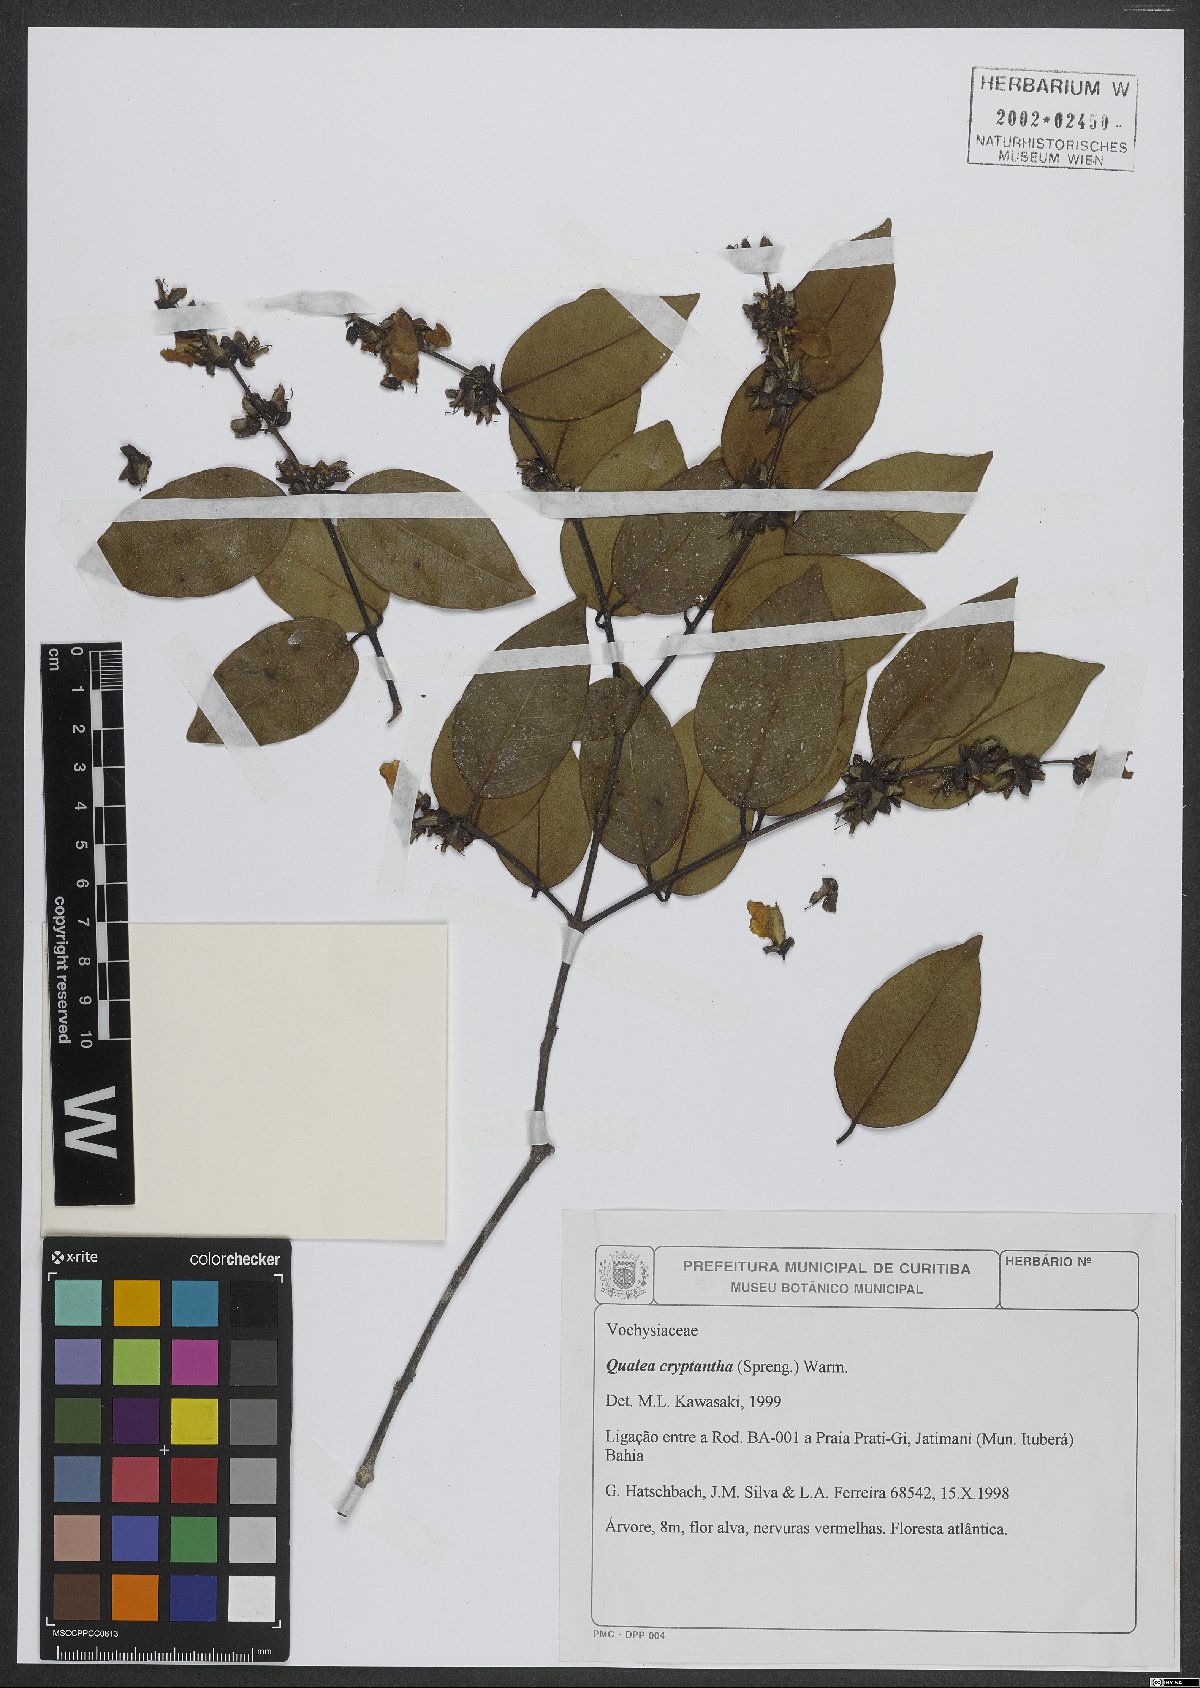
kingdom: Plantae
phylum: Tracheophyta
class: Magnoliopsida
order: Myrtales
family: Vochysiaceae
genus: Qualea
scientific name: Qualea cryptantha
